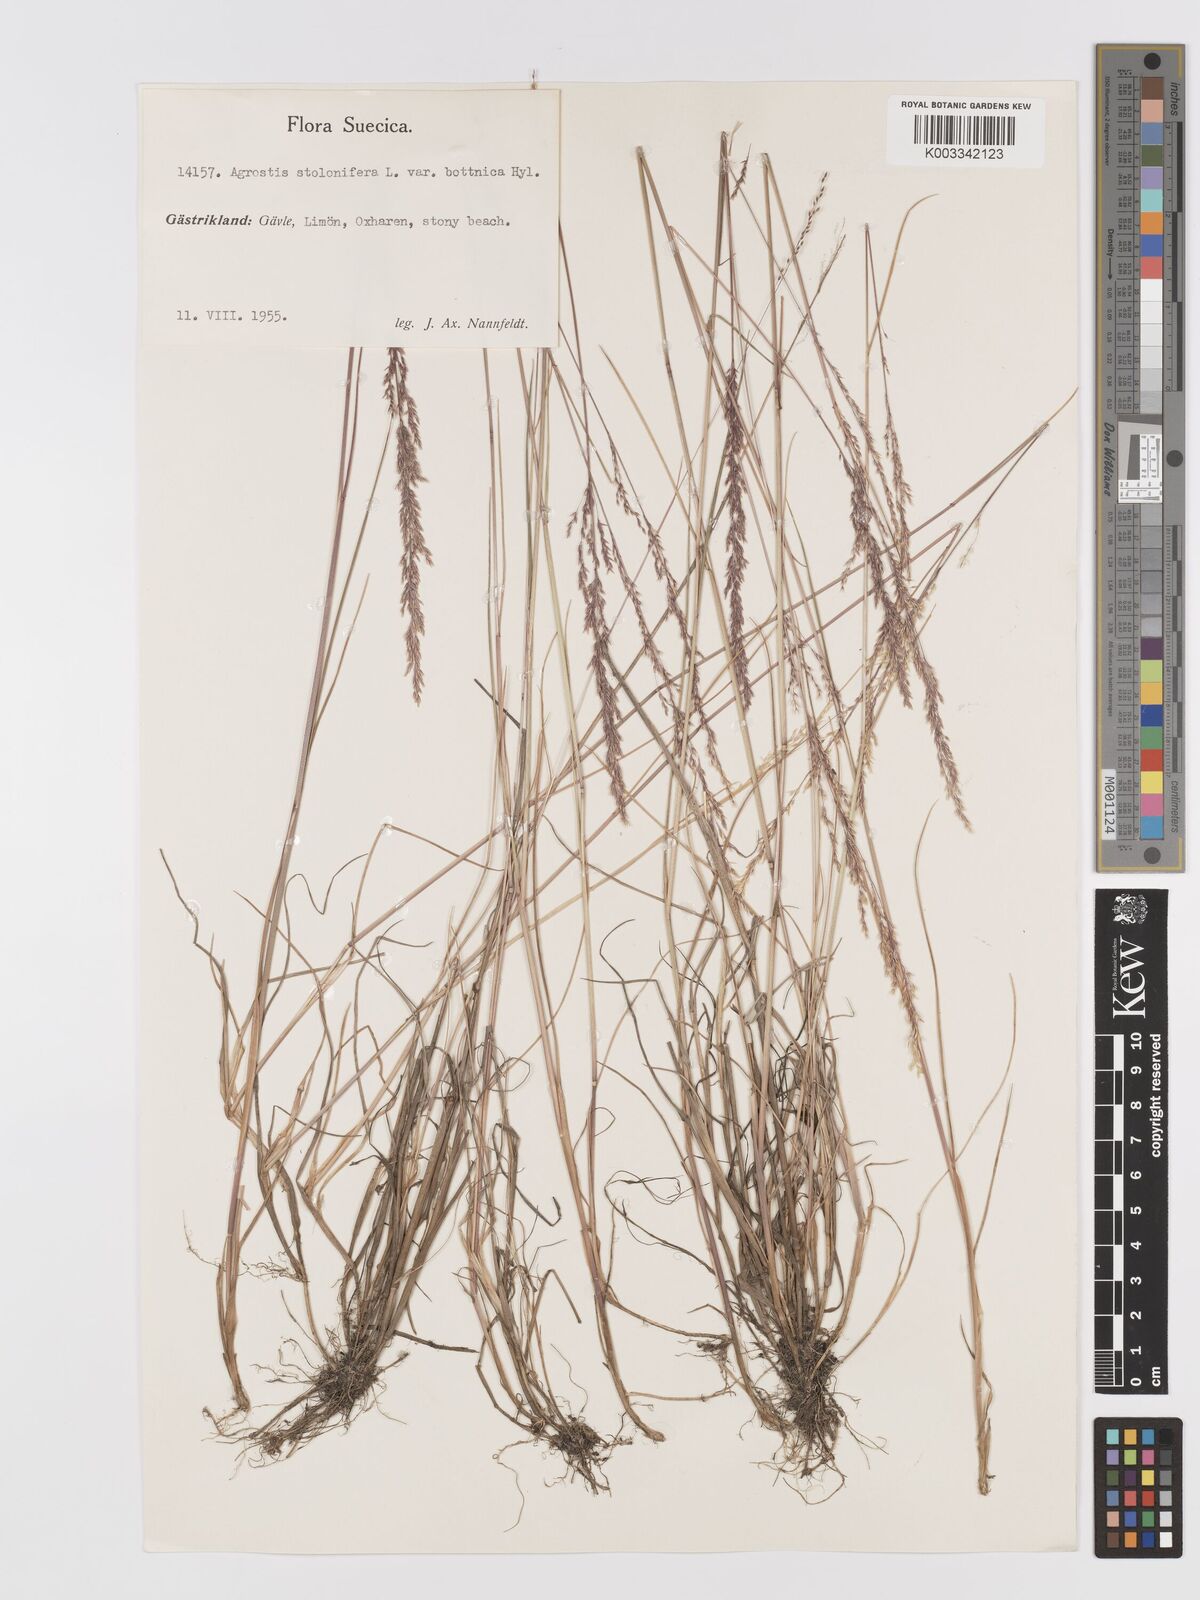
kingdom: Plantae
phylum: Tracheophyta
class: Liliopsida
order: Poales
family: Poaceae
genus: Agrostis
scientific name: Agrostis stolonifera
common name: Creeping bentgrass
